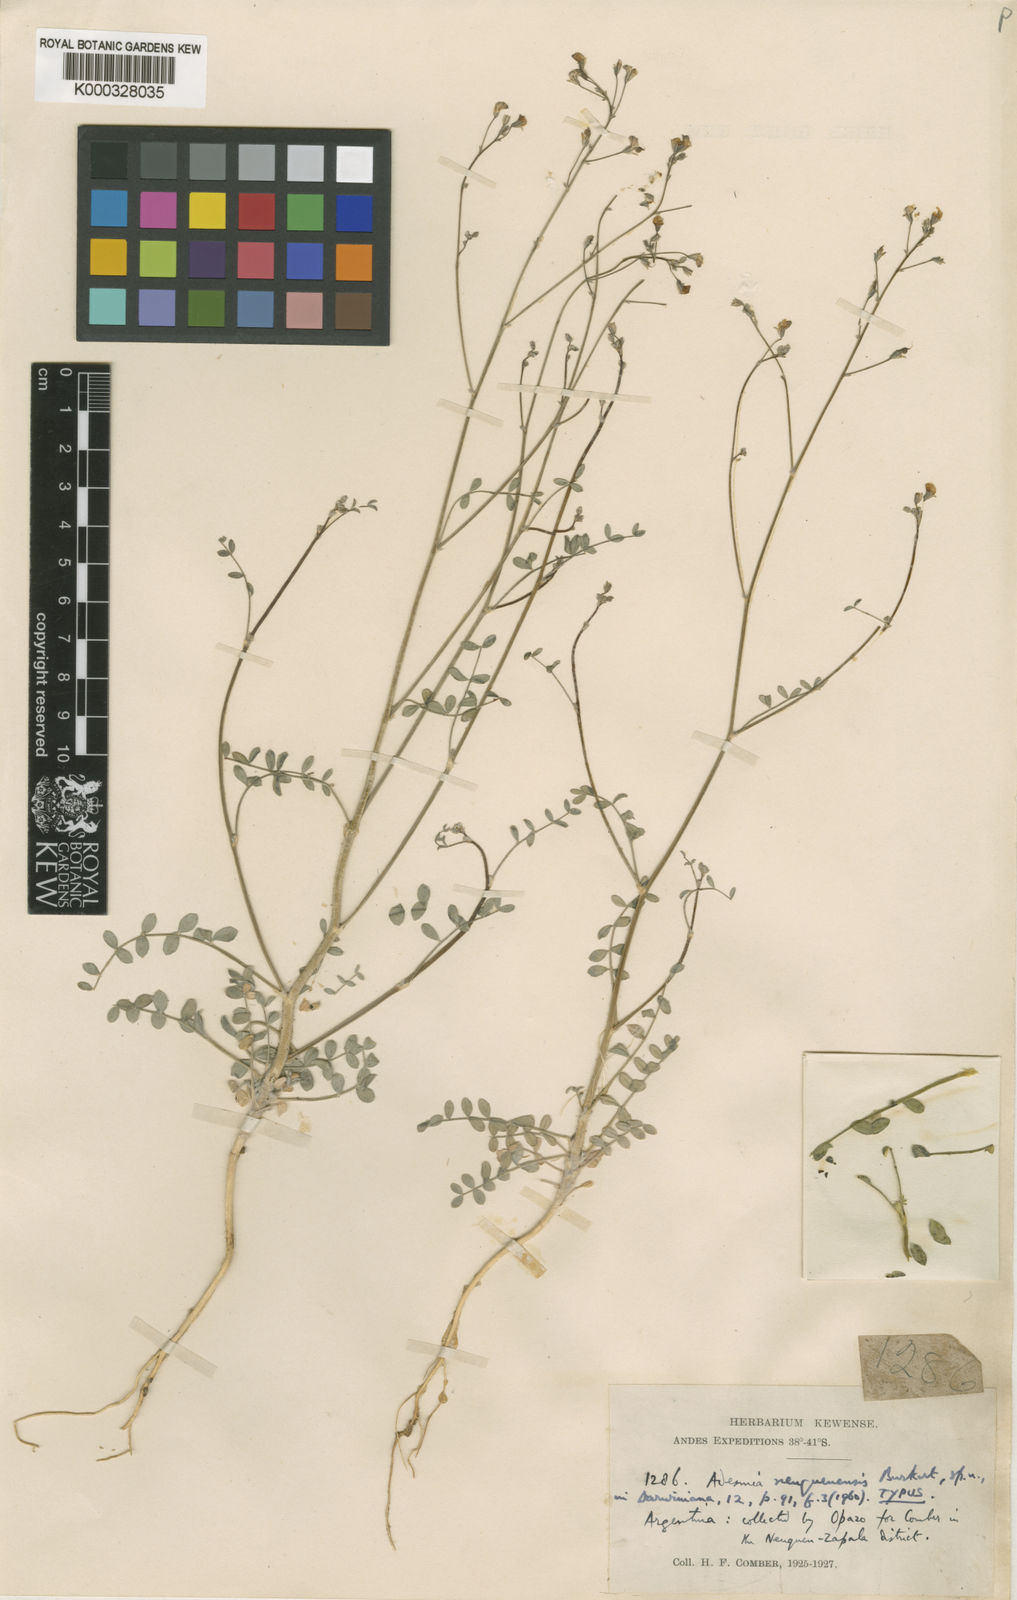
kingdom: Plantae
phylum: Tracheophyta
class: Magnoliopsida
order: Fabales
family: Fabaceae
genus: Adesmia
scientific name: Adesmia neuquenensis
